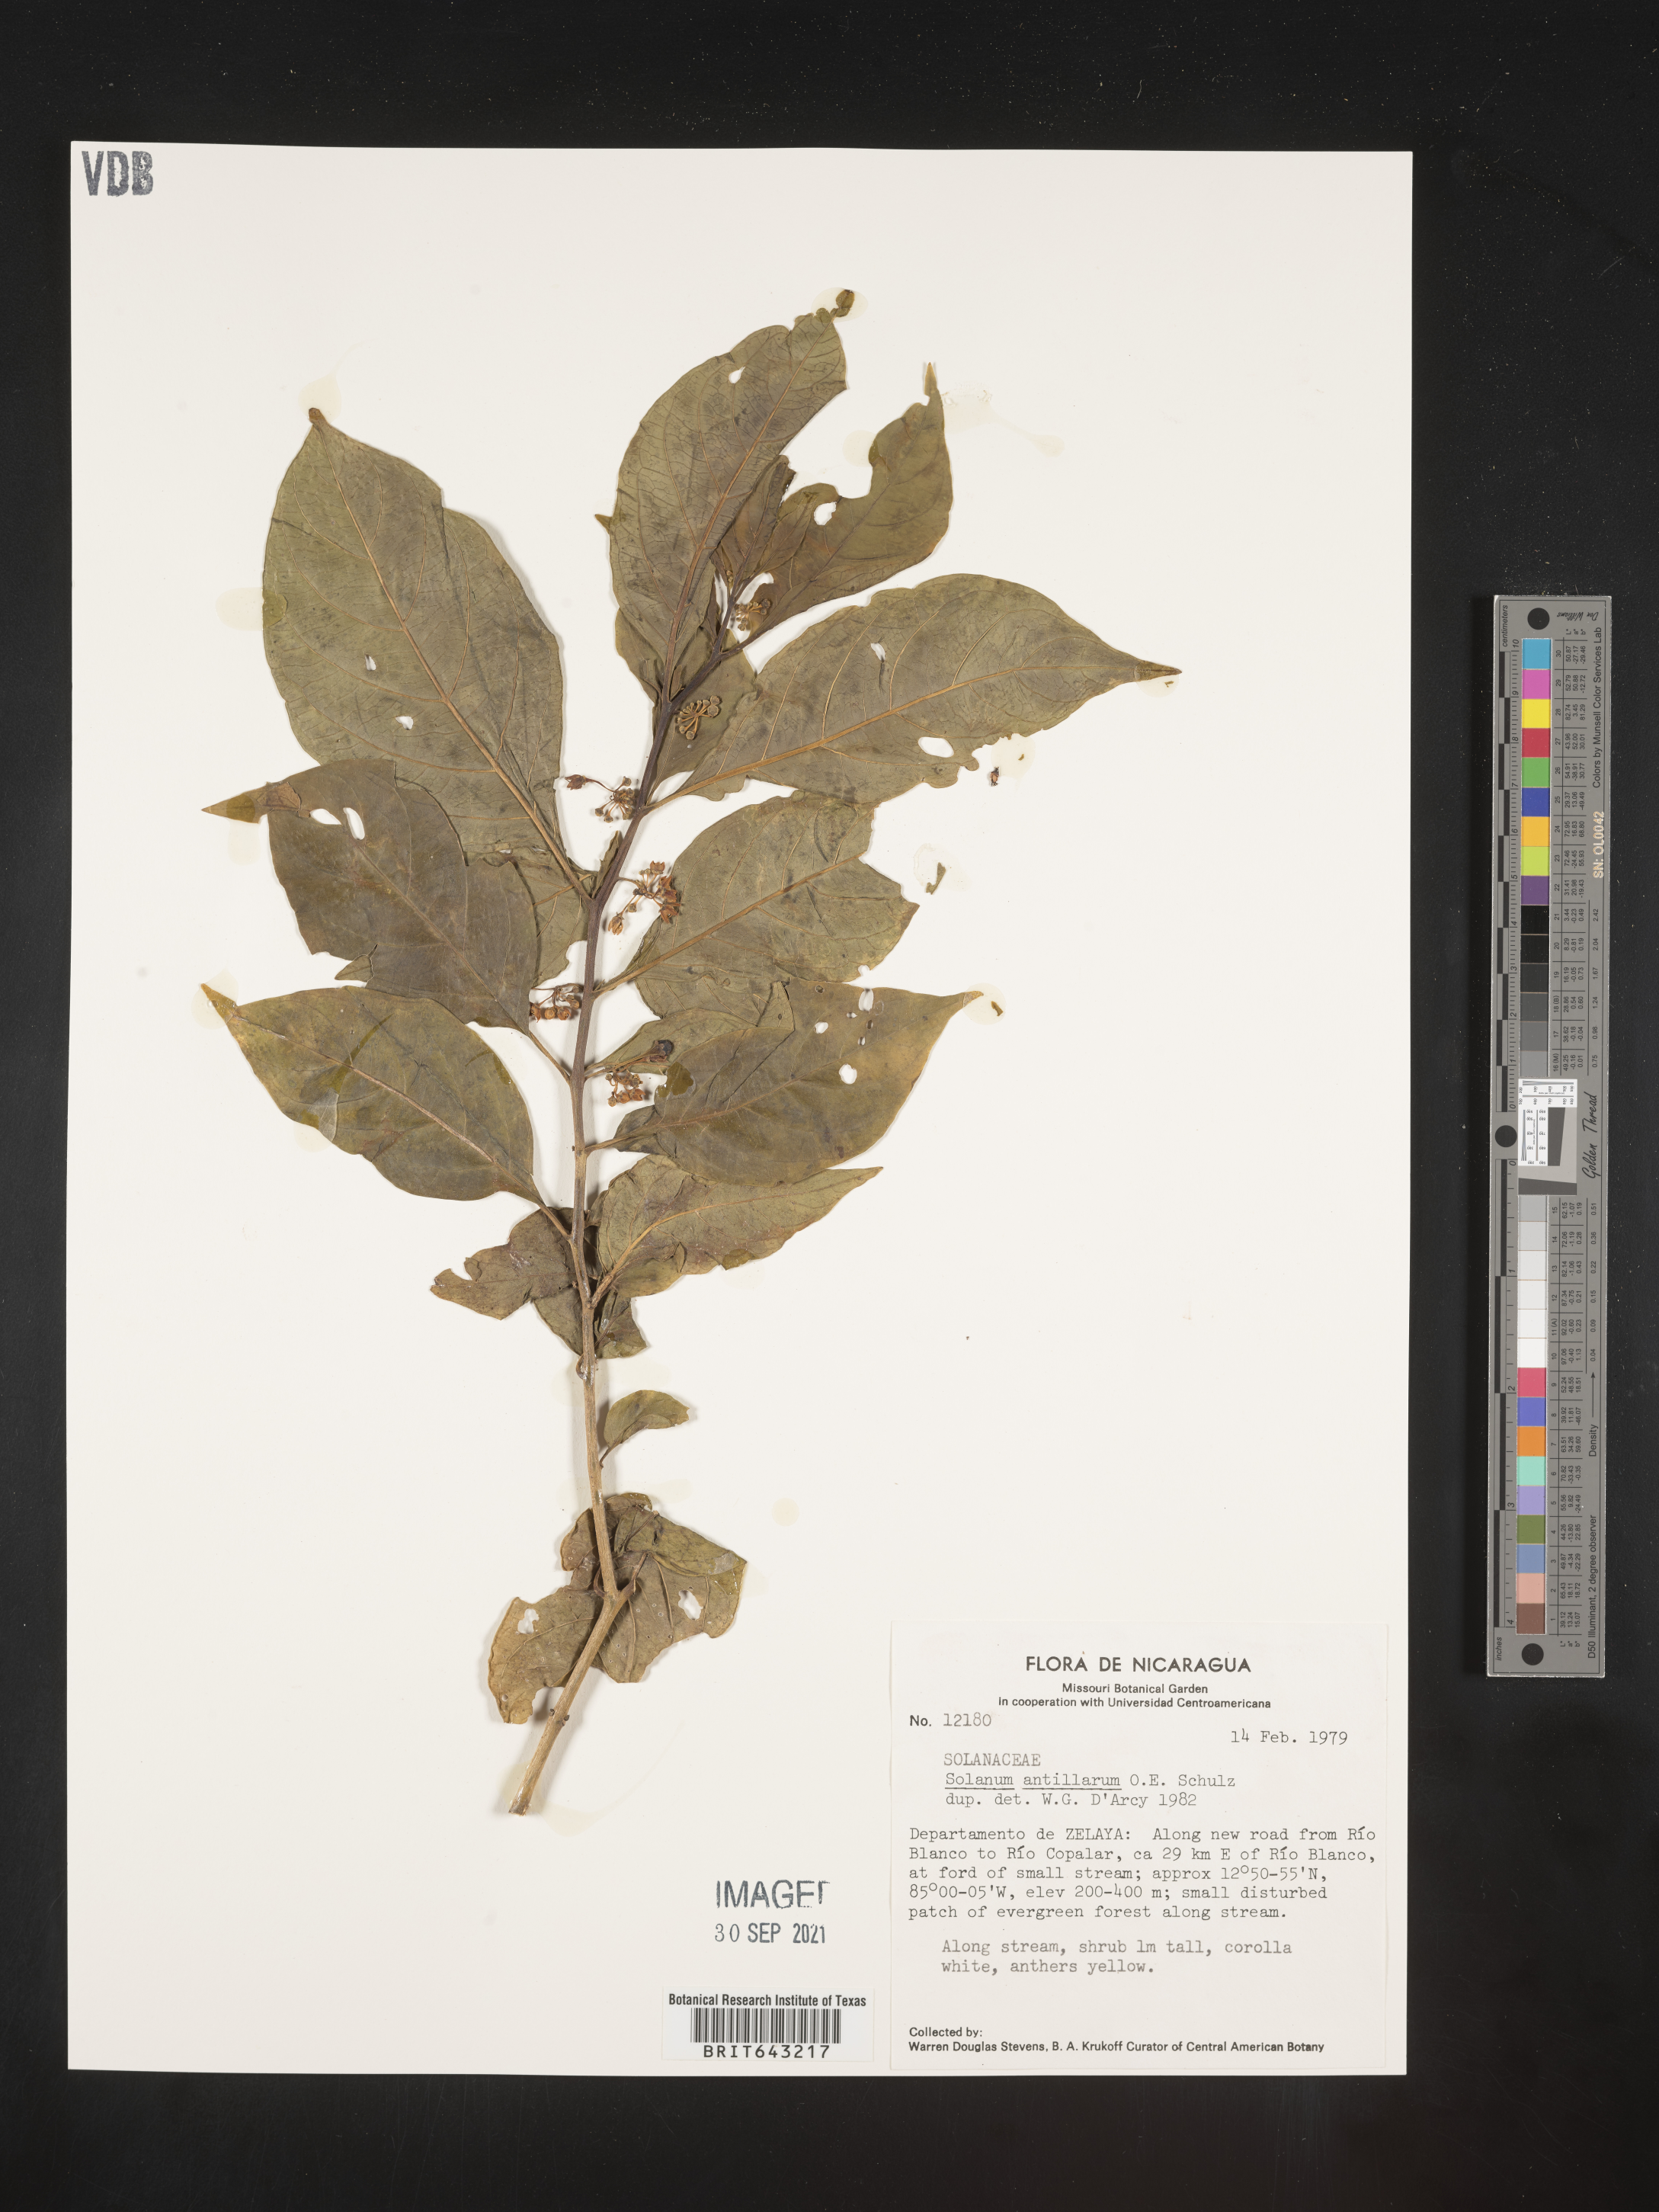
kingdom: Plantae
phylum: Tracheophyta
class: Magnoliopsida
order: Solanales
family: Solanaceae
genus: Solanum
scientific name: Solanum
